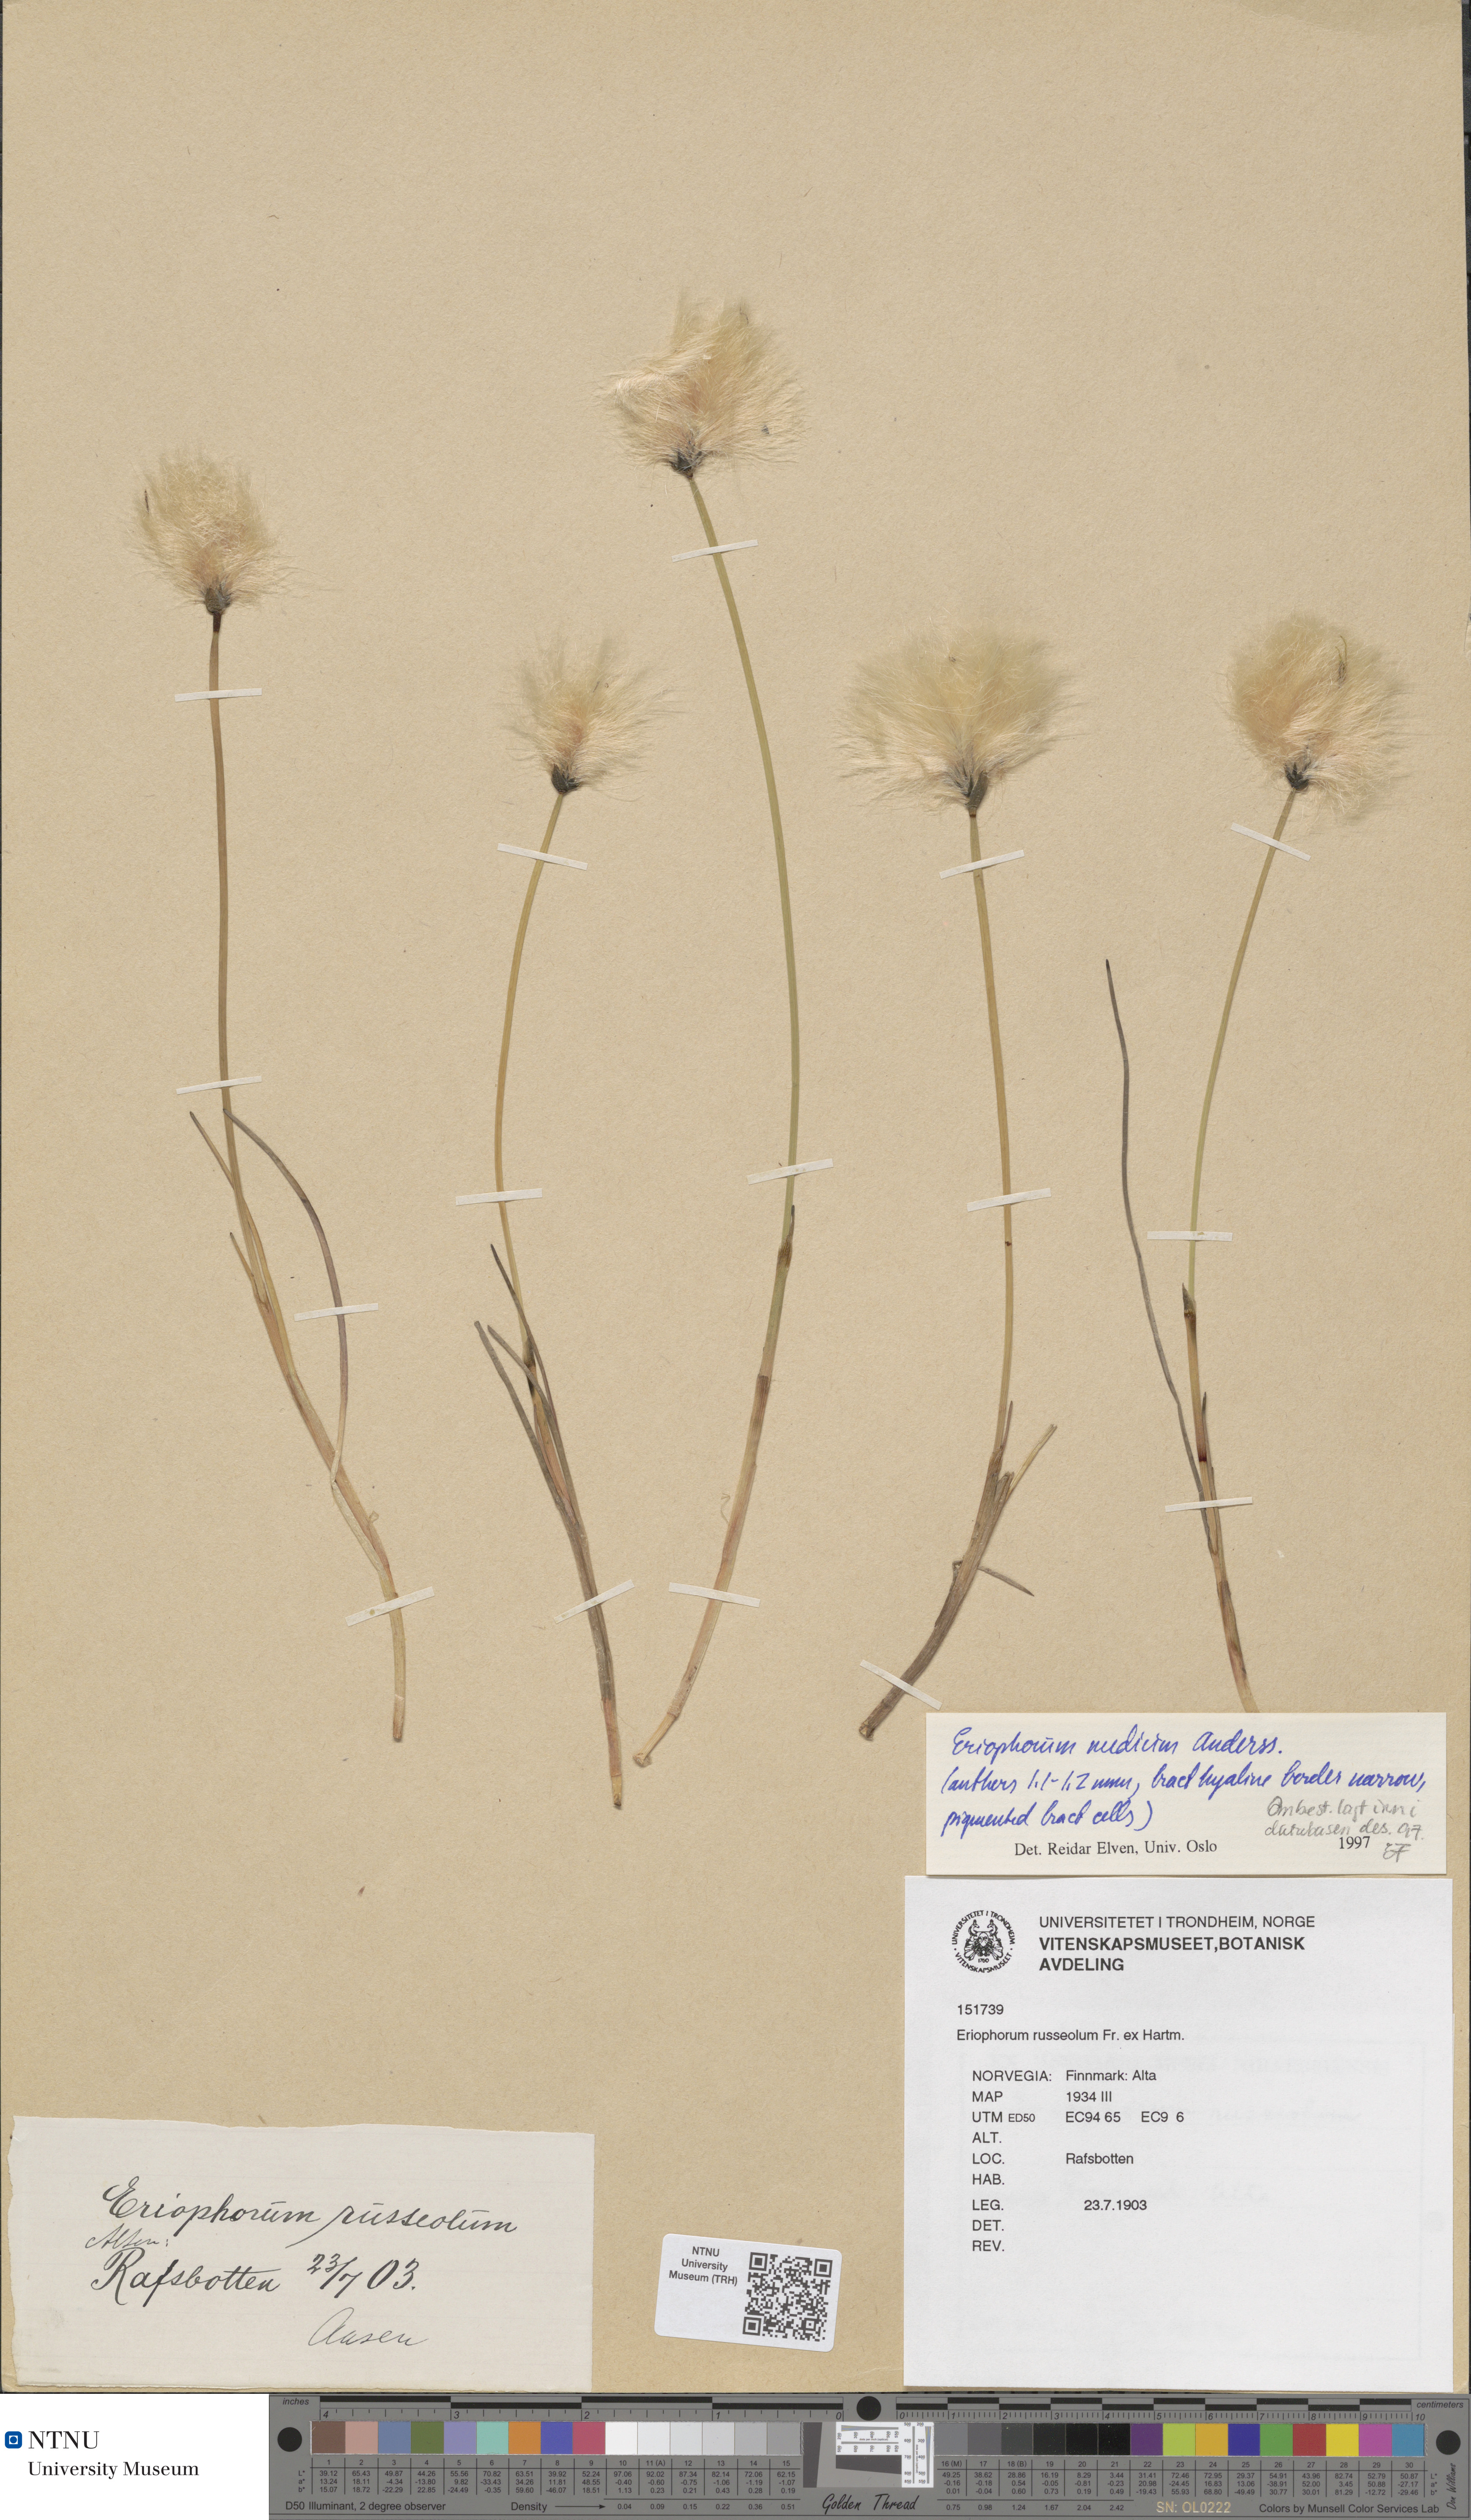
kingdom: Plantae
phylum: Tracheophyta
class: Liliopsida
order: Poales
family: Cyperaceae
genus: Eriophorum
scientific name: Eriophorum medium
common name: Intermediate cottongrass
